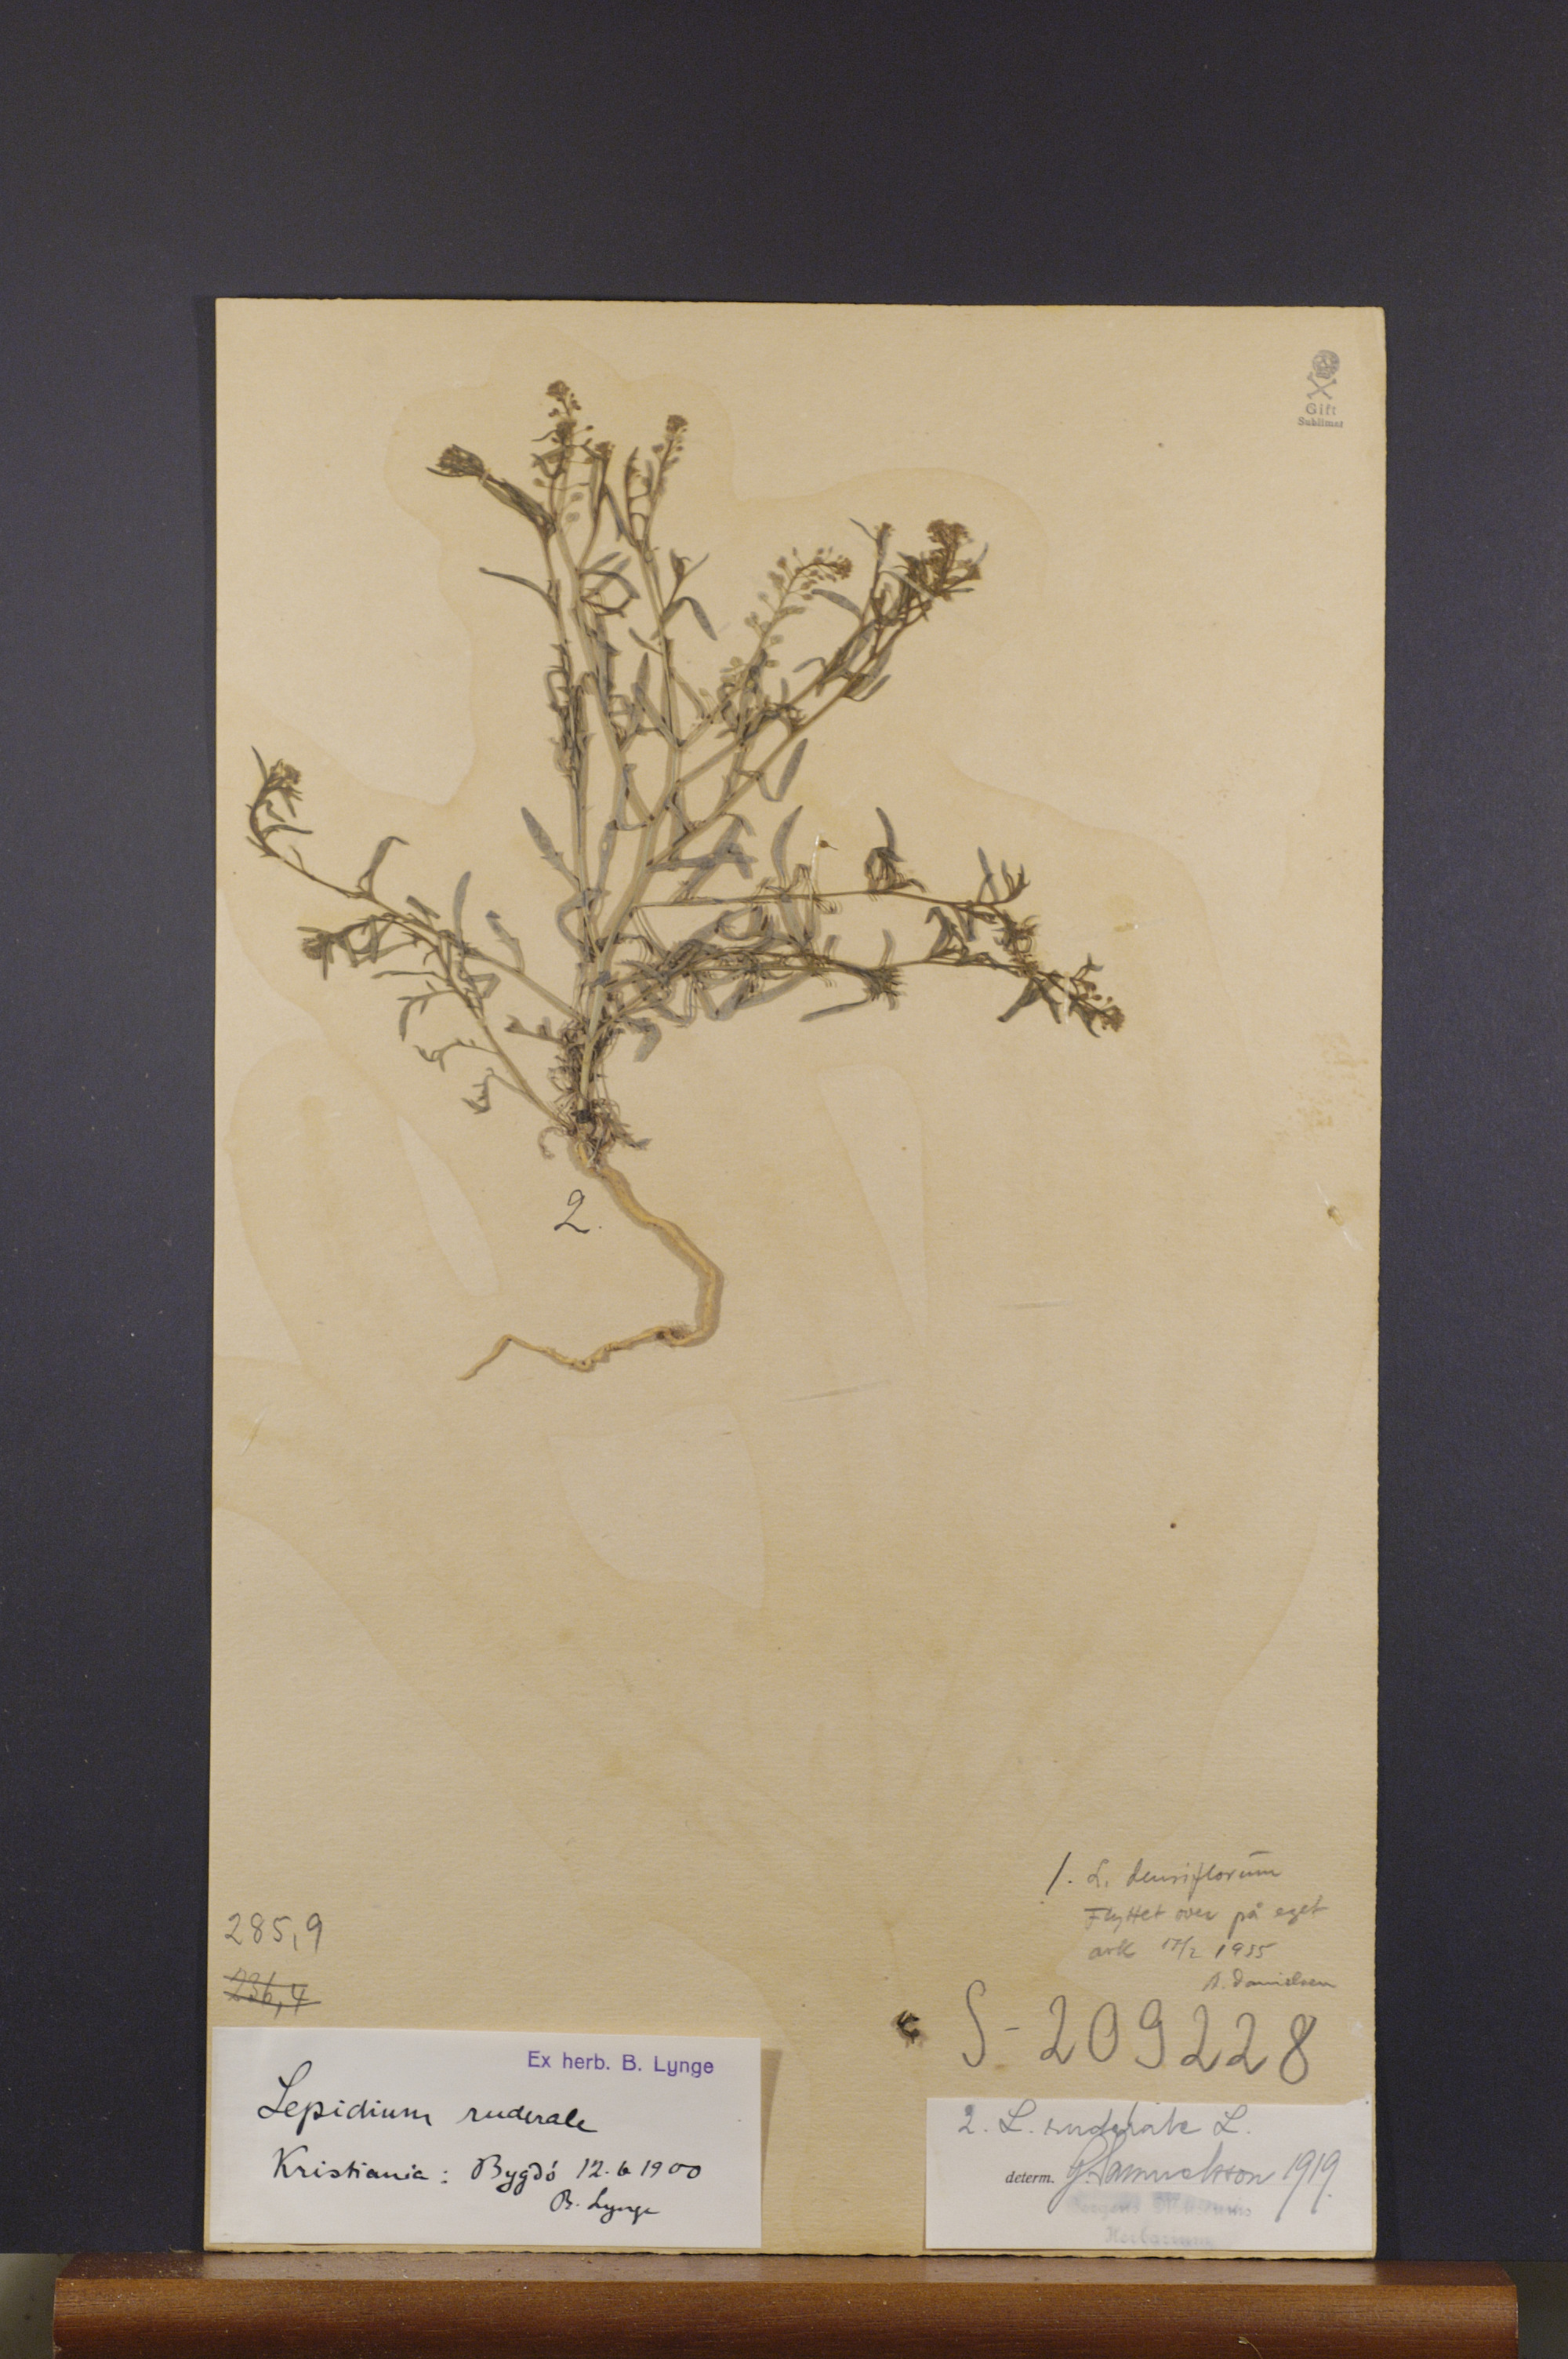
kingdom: Plantae
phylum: Tracheophyta
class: Magnoliopsida
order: Brassicales
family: Brassicaceae
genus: Lepidium
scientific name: Lepidium ruderale
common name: Narrow-leaved pepperwort
